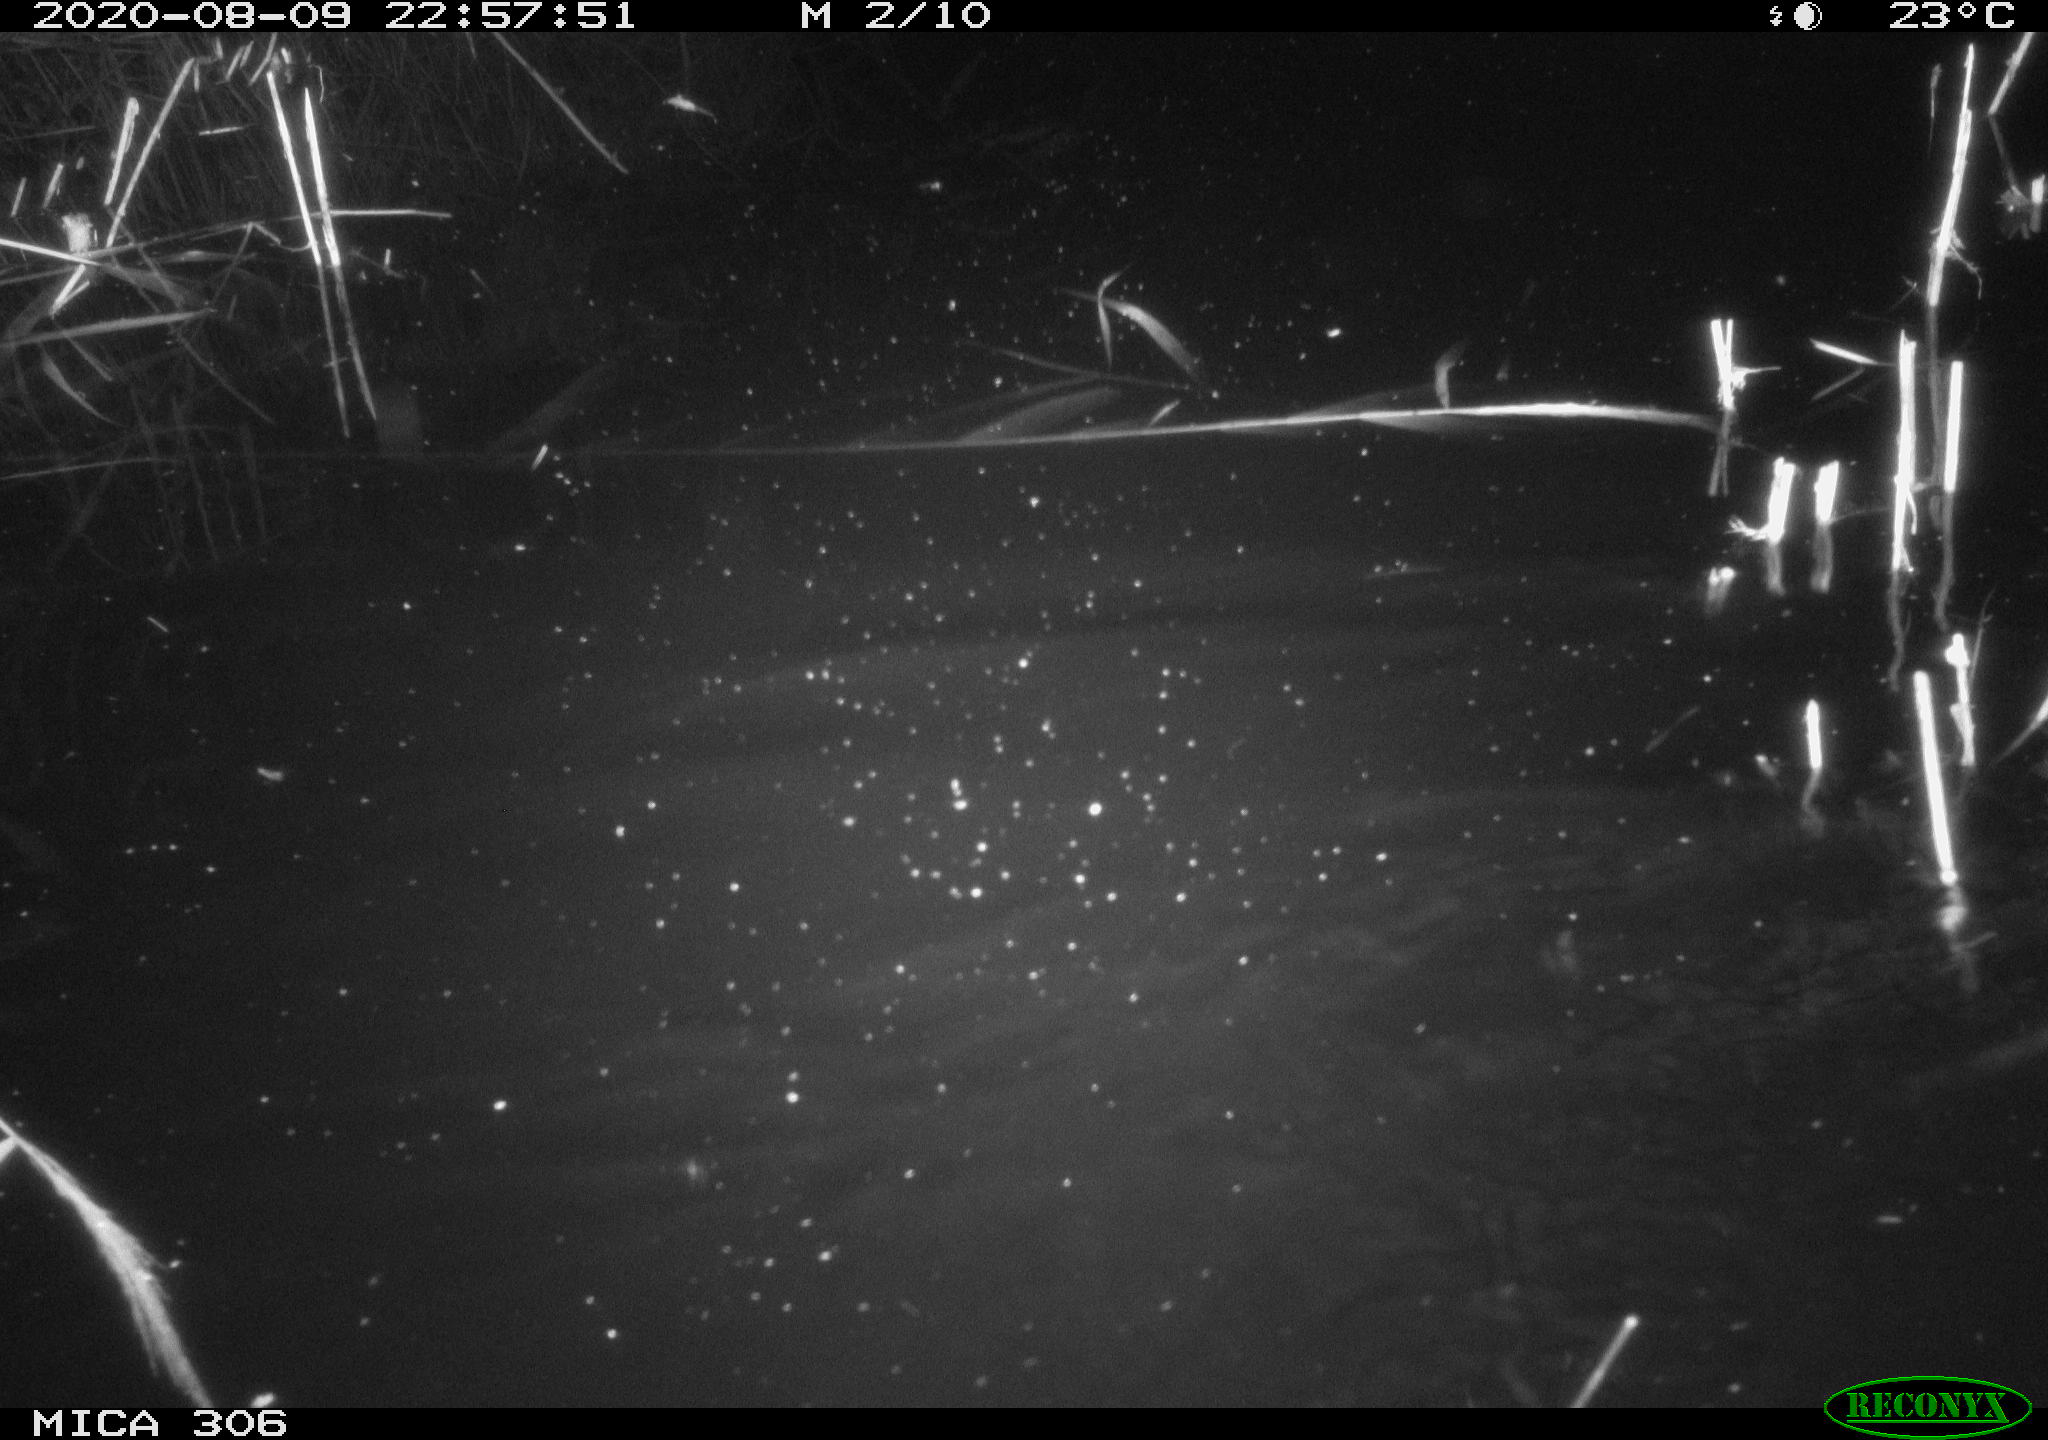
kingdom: Animalia
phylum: Chordata
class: Mammalia
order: Rodentia
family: Muridae
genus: Rattus
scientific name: Rattus norvegicus
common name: Brown rat
